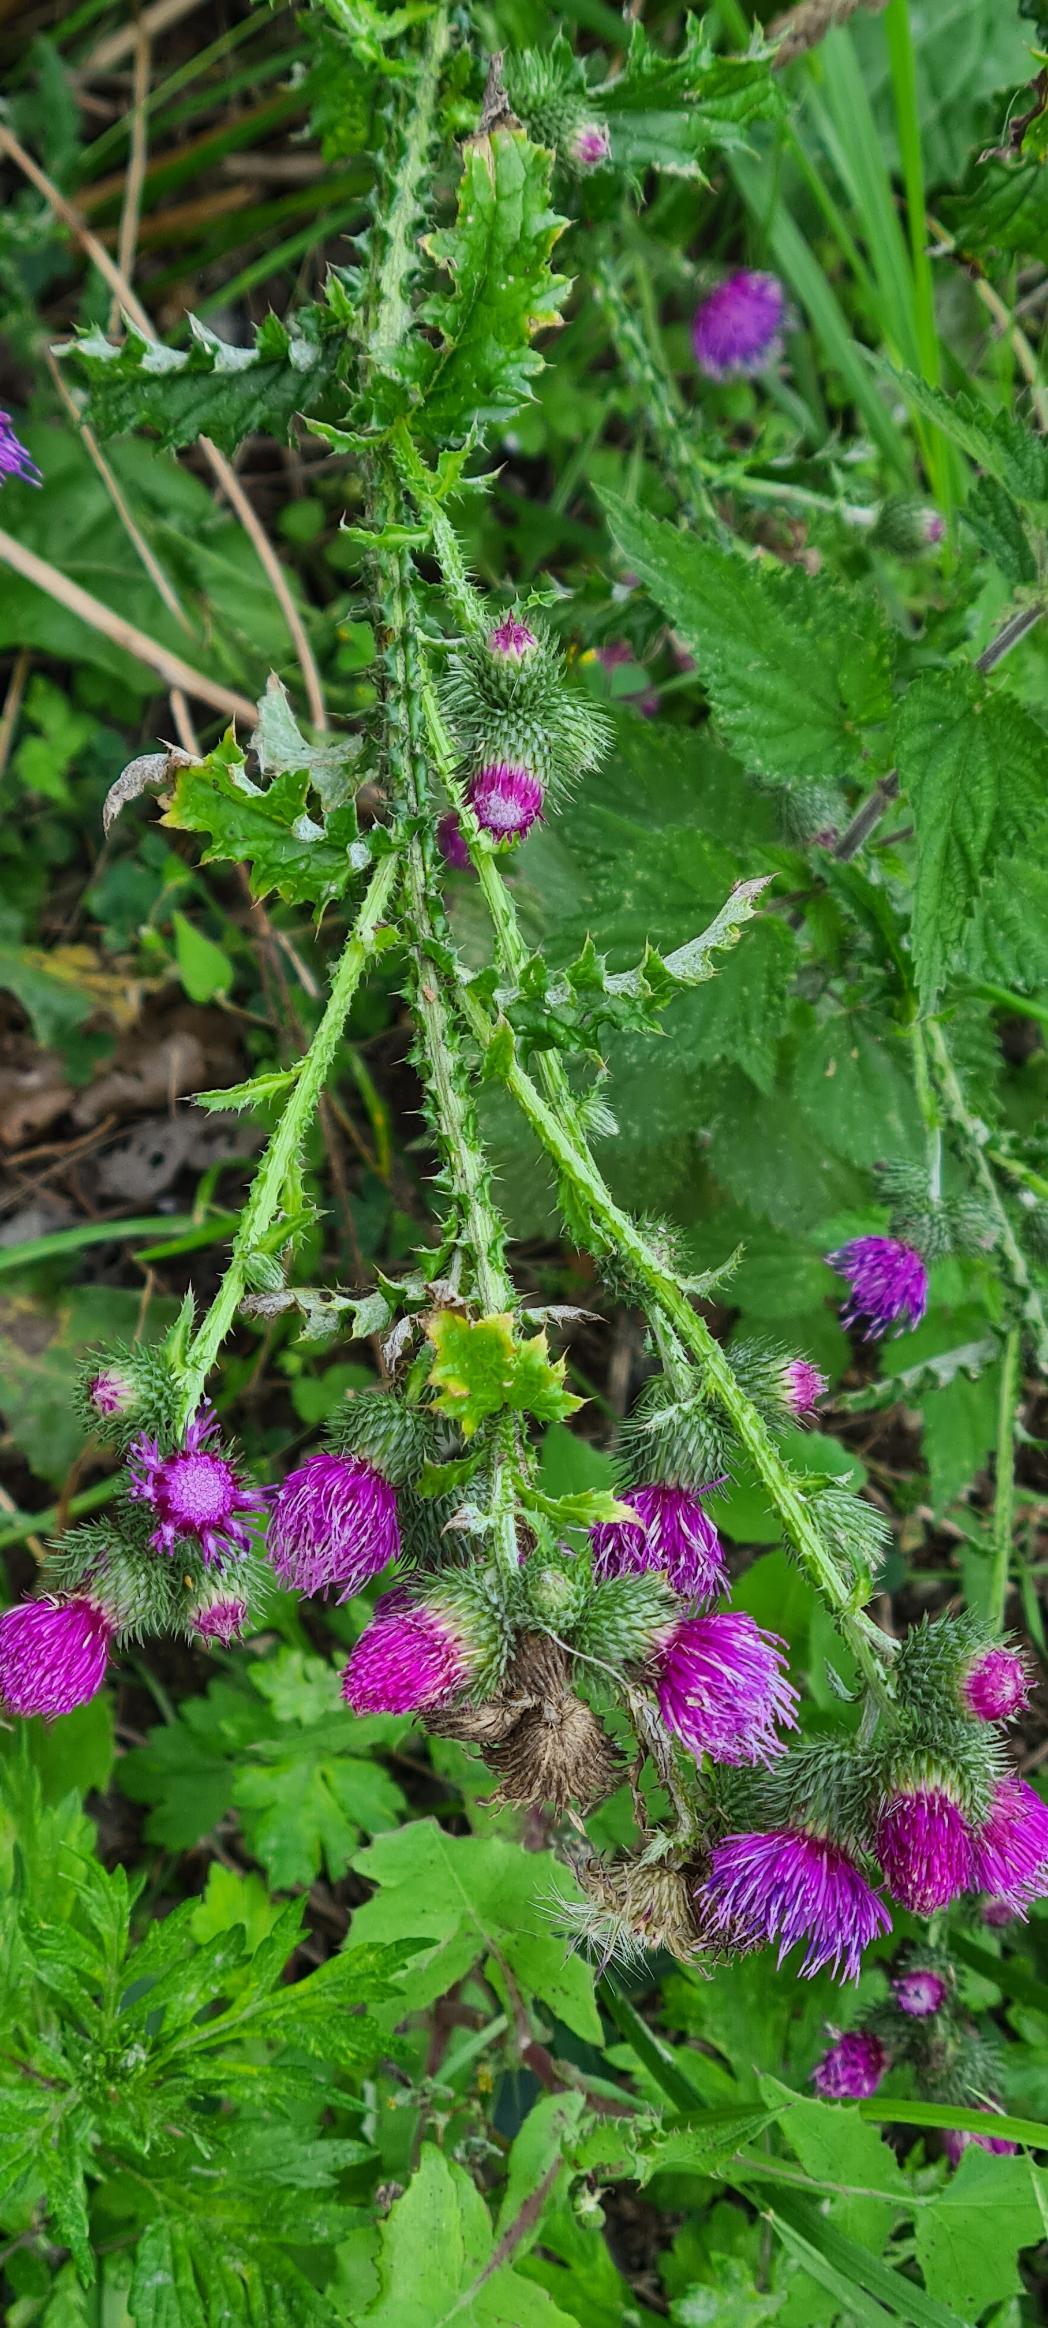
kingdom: Plantae
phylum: Tracheophyta
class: Magnoliopsida
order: Asterales
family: Asteraceae
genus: Carduus
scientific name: Carduus crispus
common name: Kruset tidsel
